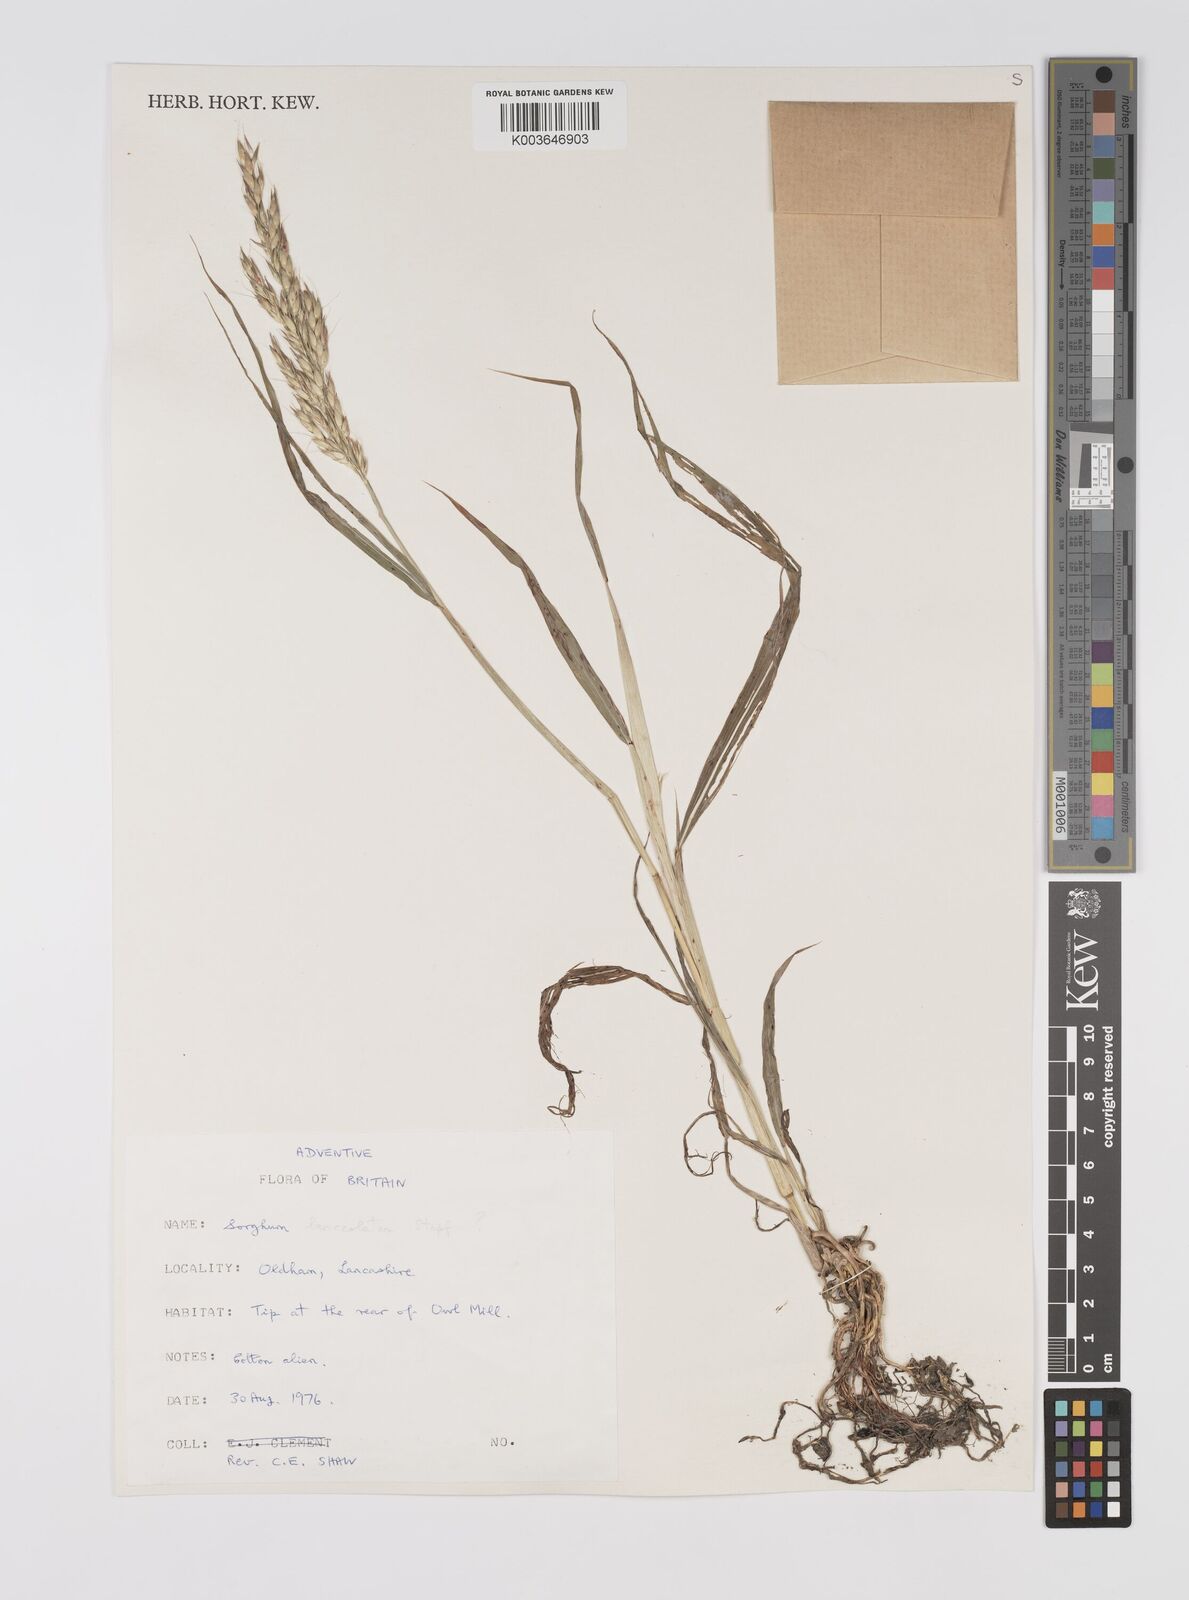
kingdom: Plantae
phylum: Tracheophyta
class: Liliopsida
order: Poales
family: Poaceae
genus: Sorghum
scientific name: Sorghum
